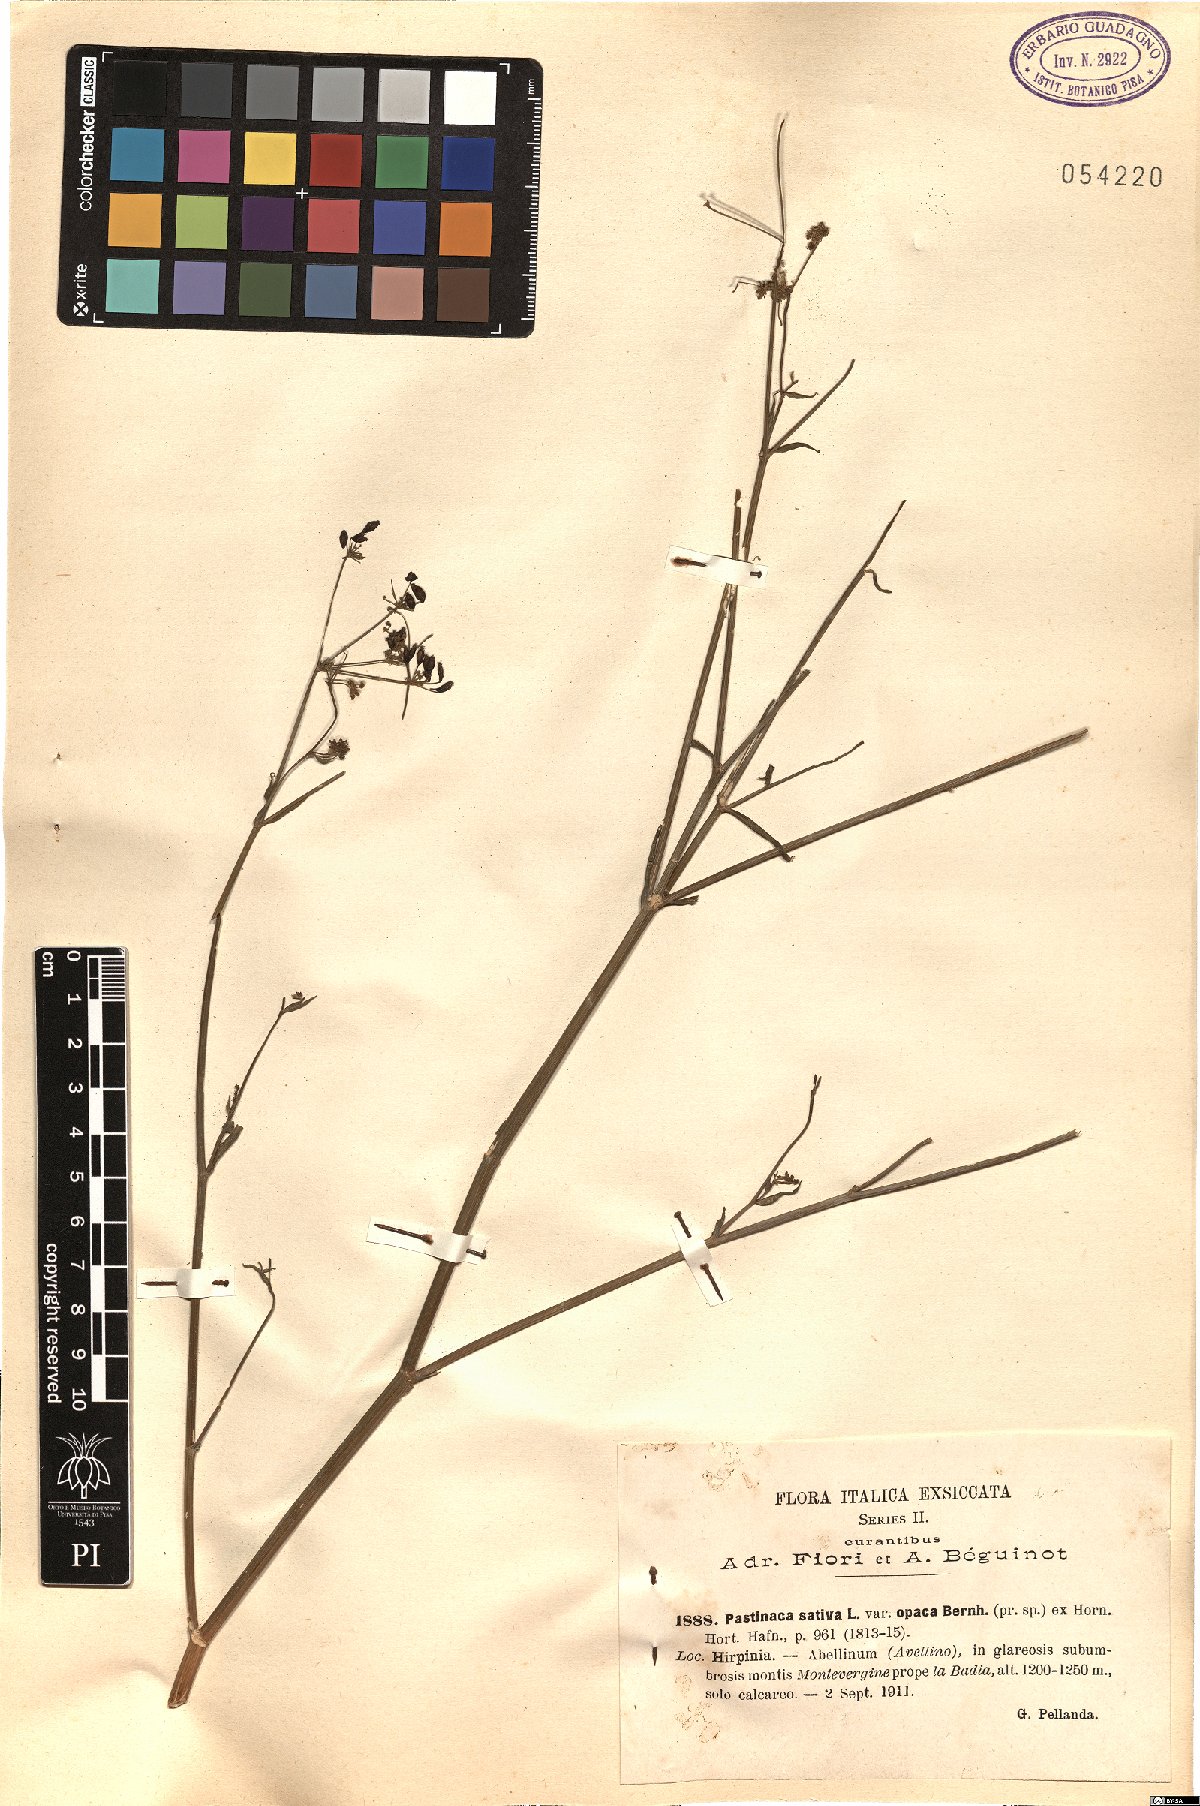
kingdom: Plantae
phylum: Tracheophyta
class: Magnoliopsida
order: Apiales
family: Apiaceae
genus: Pastinaca
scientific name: Pastinaca sativa
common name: Wild parsnip
